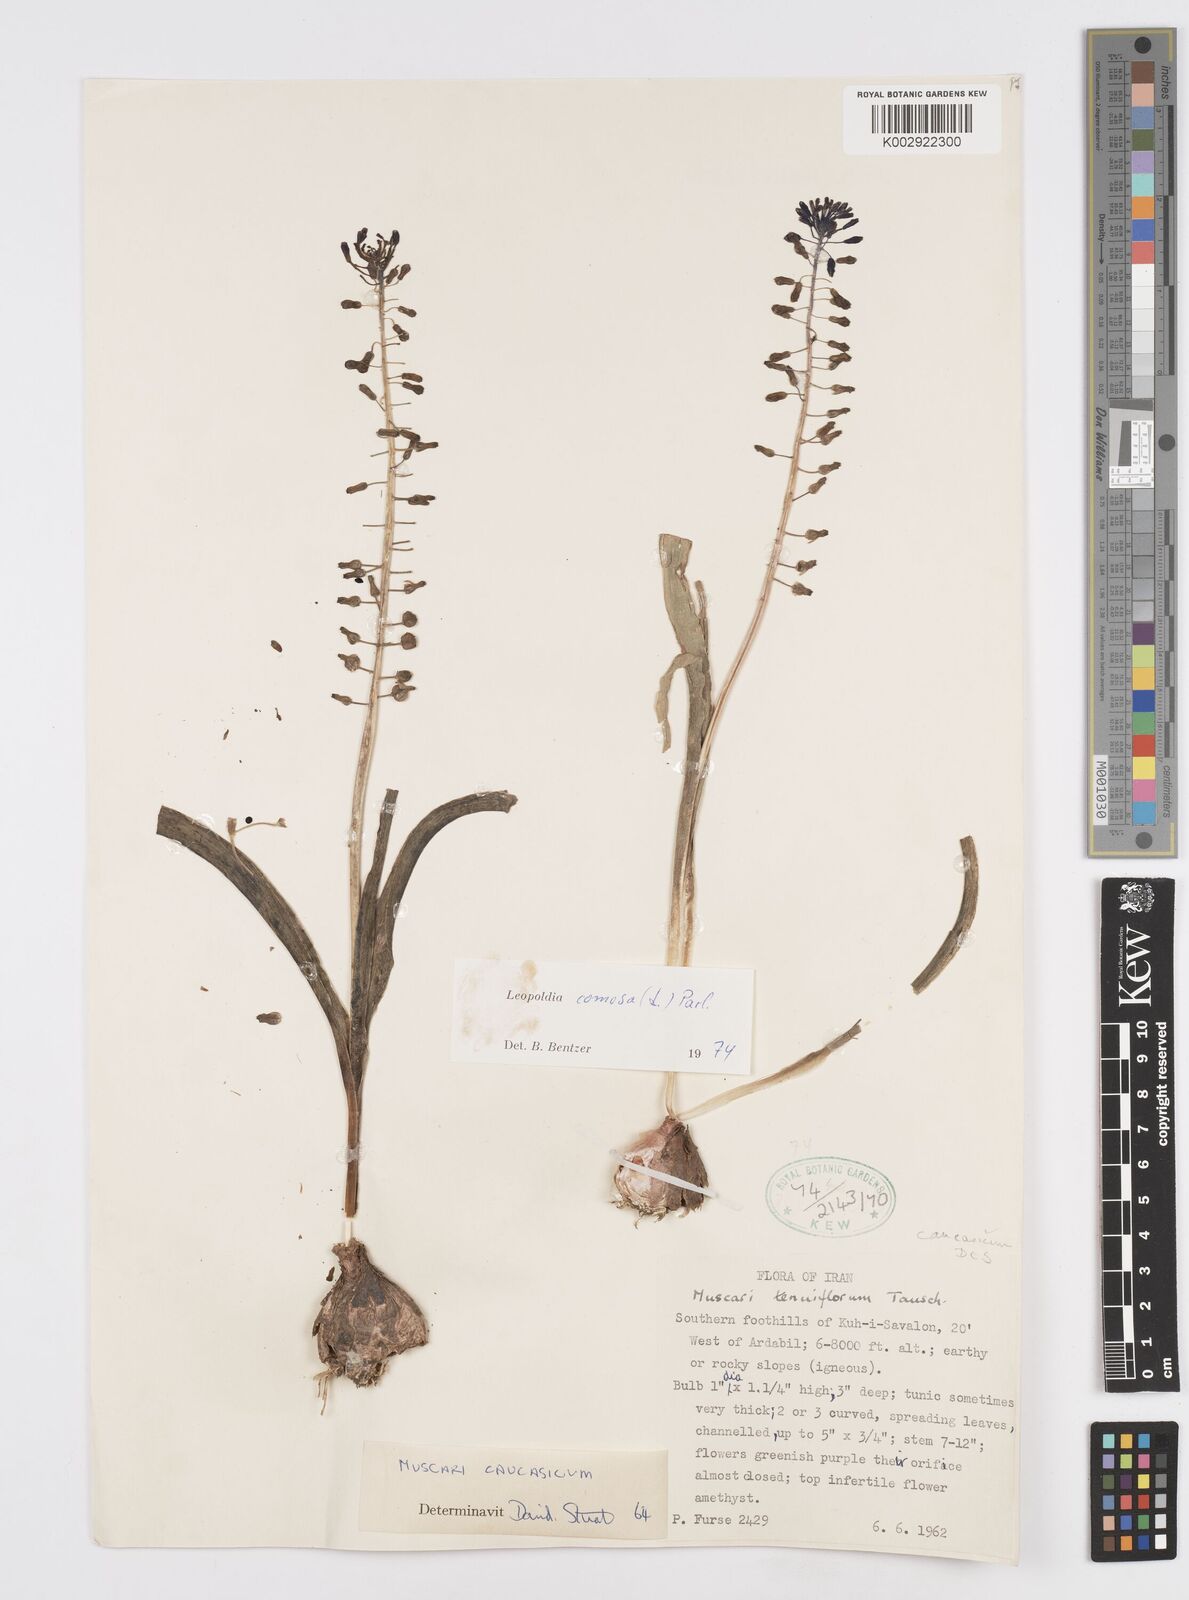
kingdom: Plantae
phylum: Tracheophyta
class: Liliopsida
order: Asparagales
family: Asparagaceae
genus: Muscari
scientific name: Muscari comosum
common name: Tassel hyacinth
